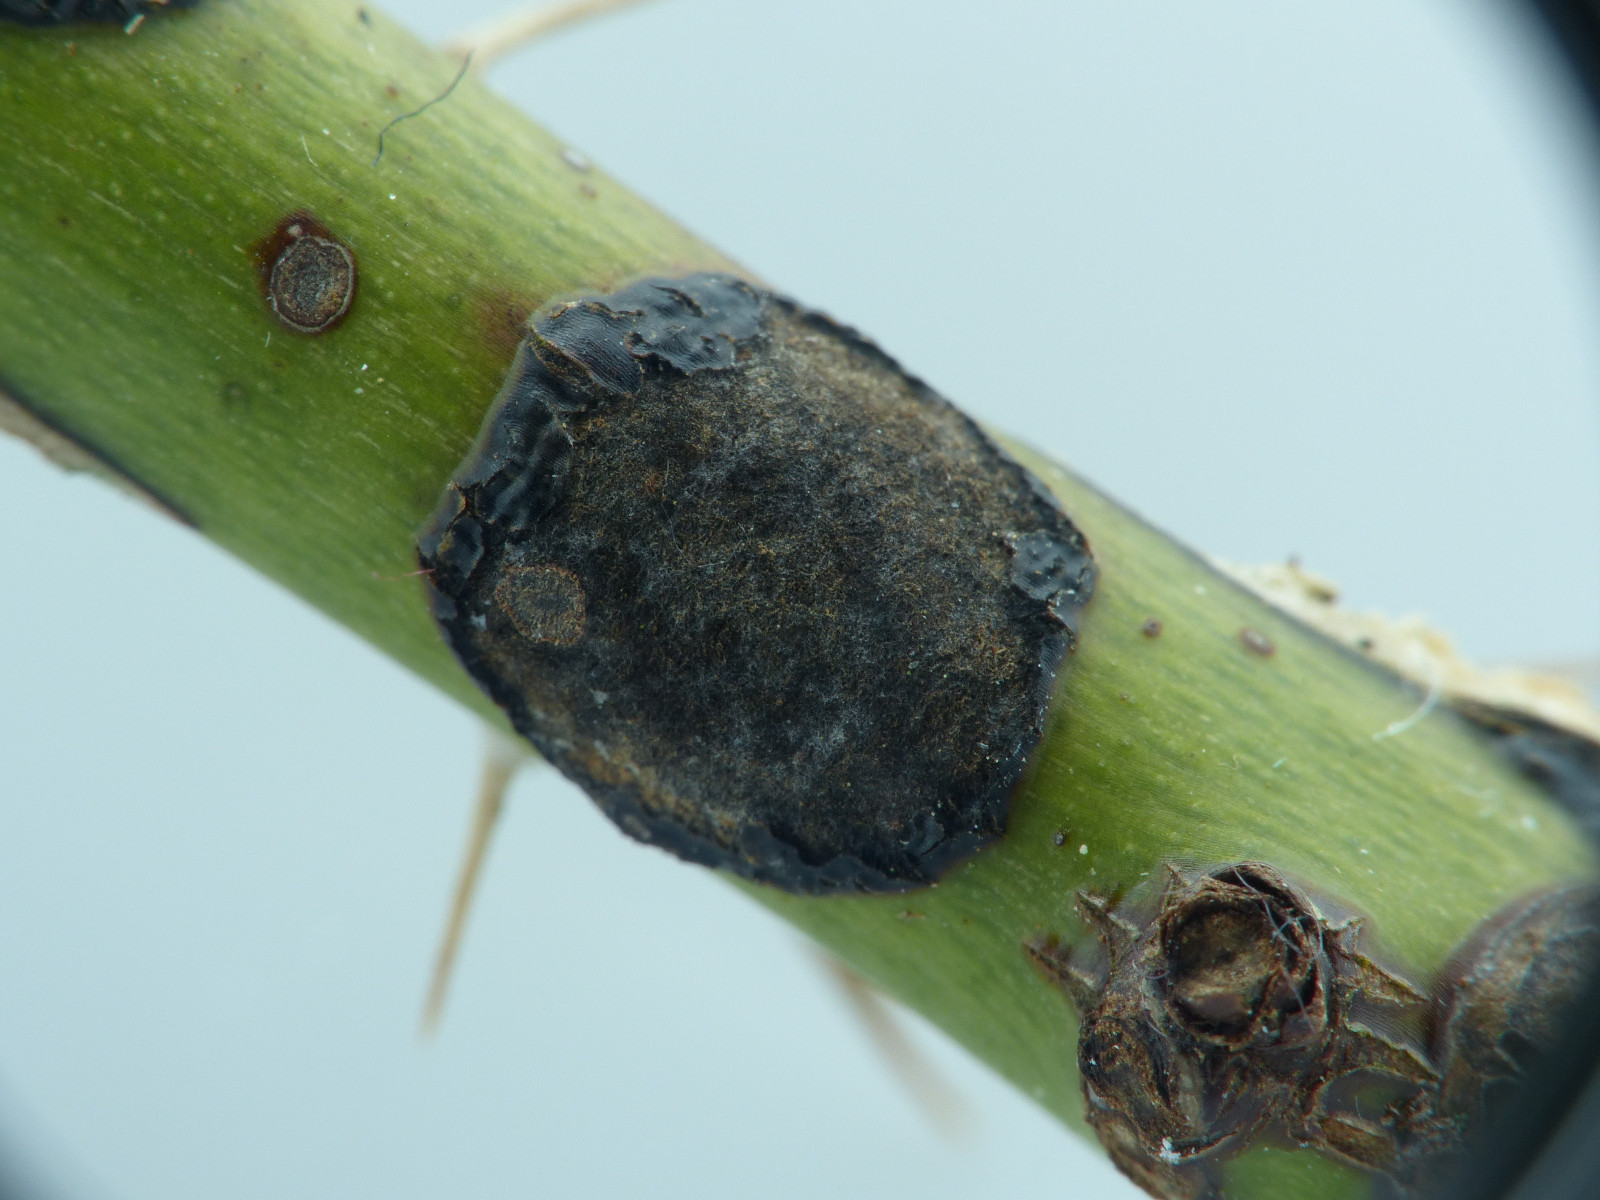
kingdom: Fungi
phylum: Ascomycota
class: Leotiomycetes
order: Helotiales
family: Drepanopezizaceae
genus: Diplocarpon
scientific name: Diplocarpon rosae
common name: Rose black-spot
